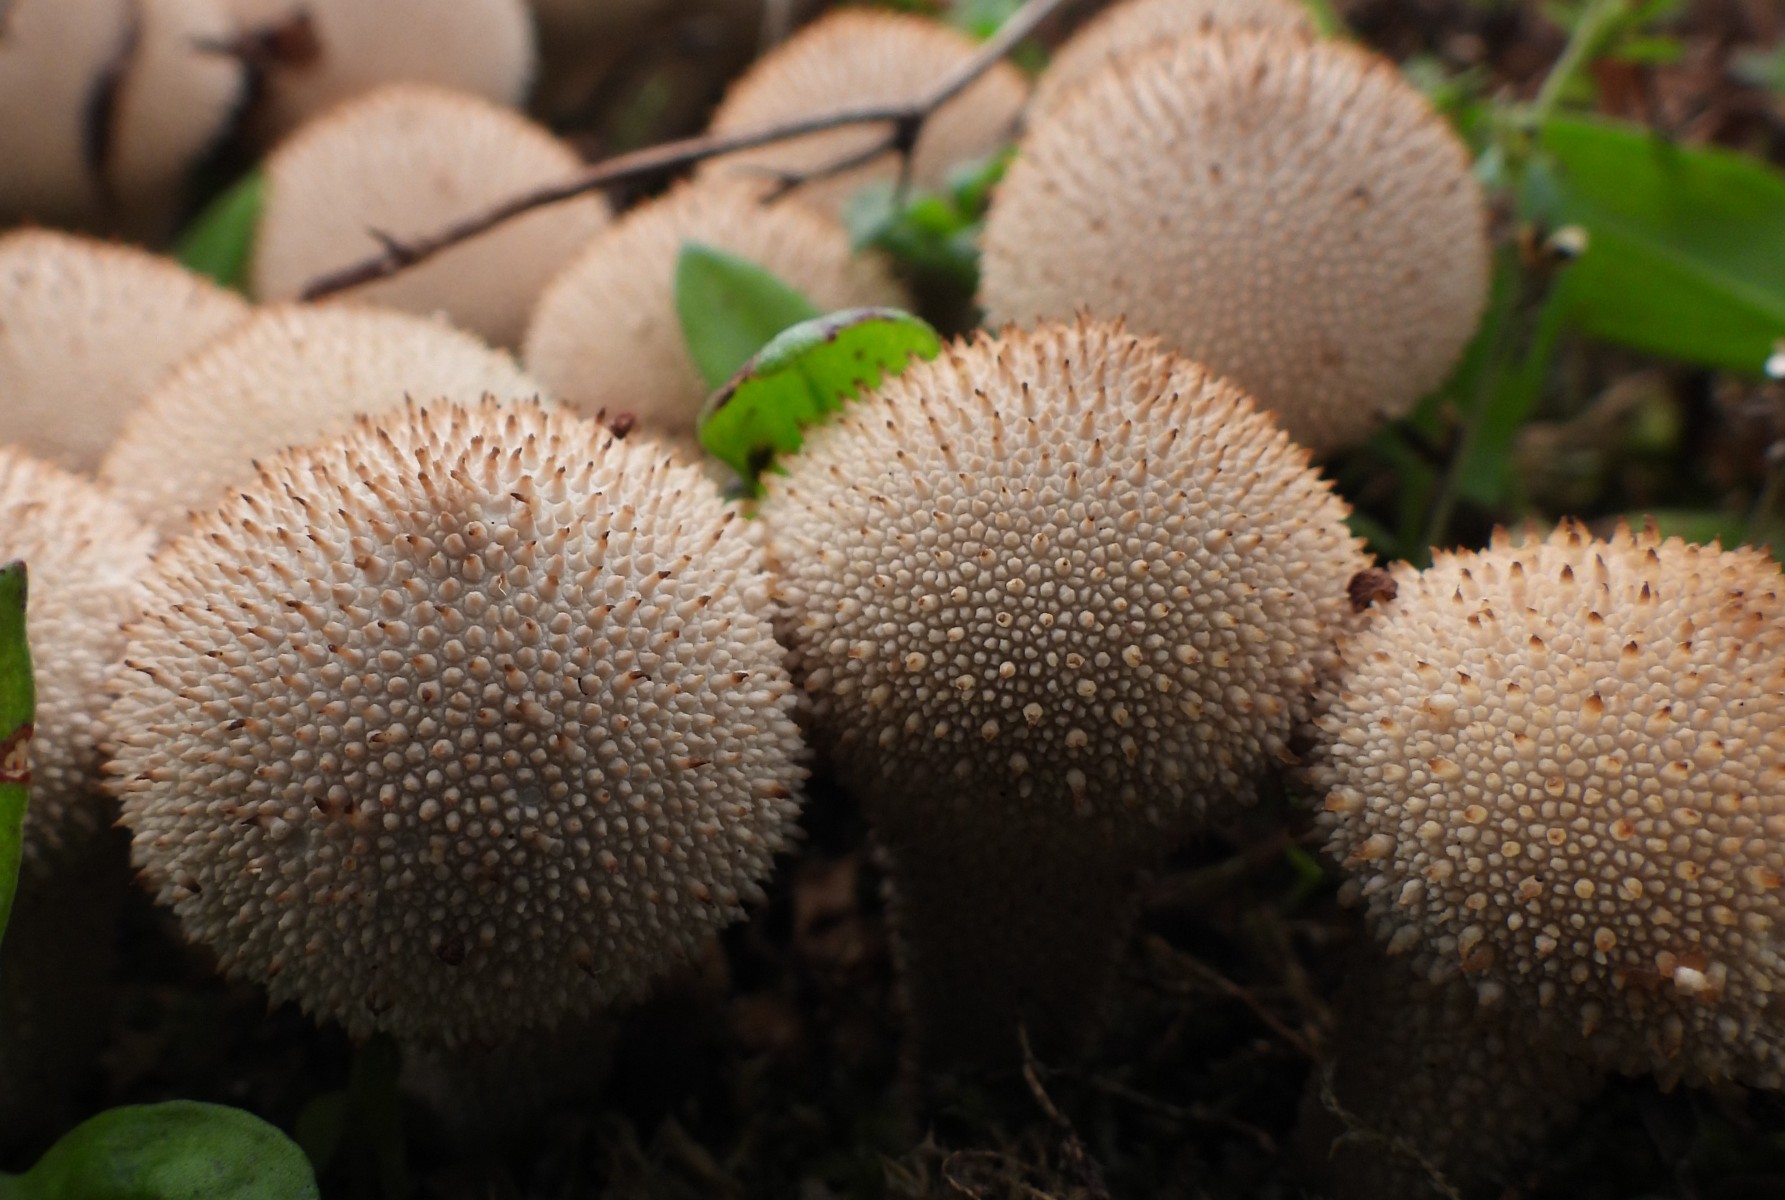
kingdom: Fungi
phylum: Basidiomycota
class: Agaricomycetes
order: Agaricales
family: Lycoperdaceae
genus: Lycoperdon
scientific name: Lycoperdon perlatum
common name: krystal-støvbold
